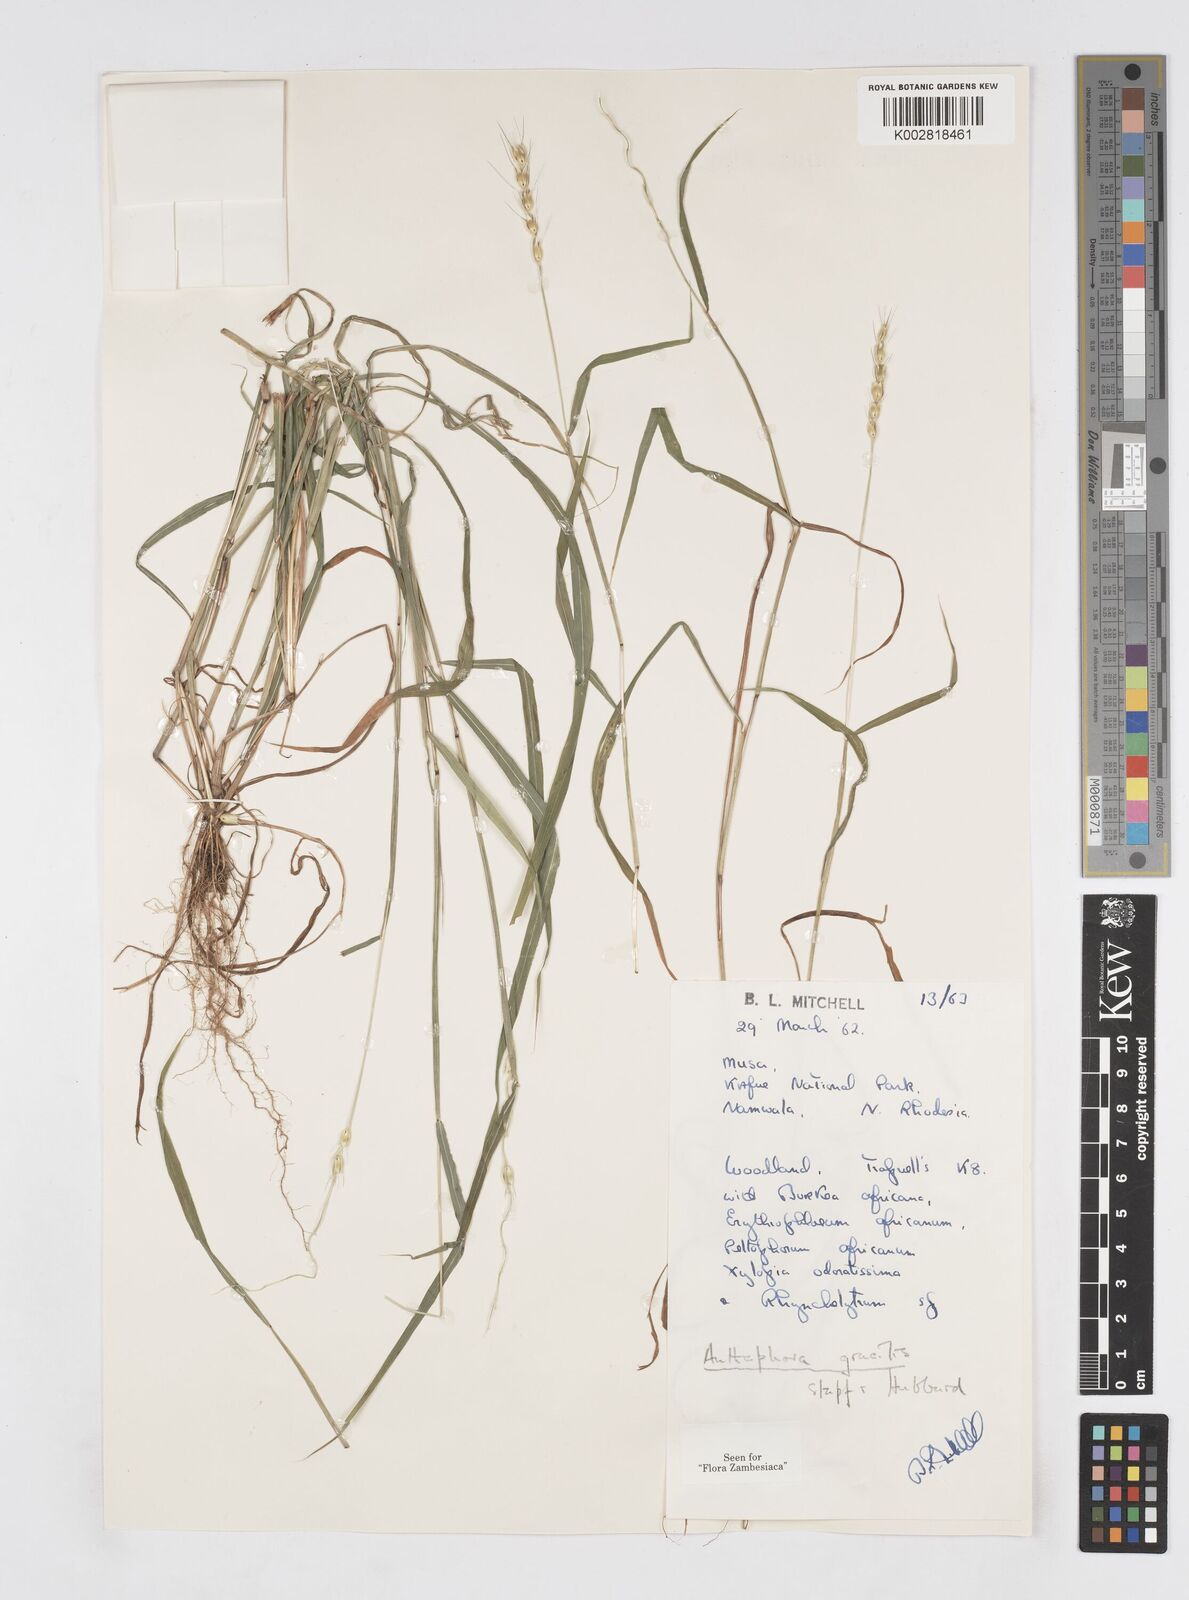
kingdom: Plantae
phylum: Tracheophyta
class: Liliopsida
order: Poales
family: Poaceae
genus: Anthephora
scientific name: Anthephora truncata
